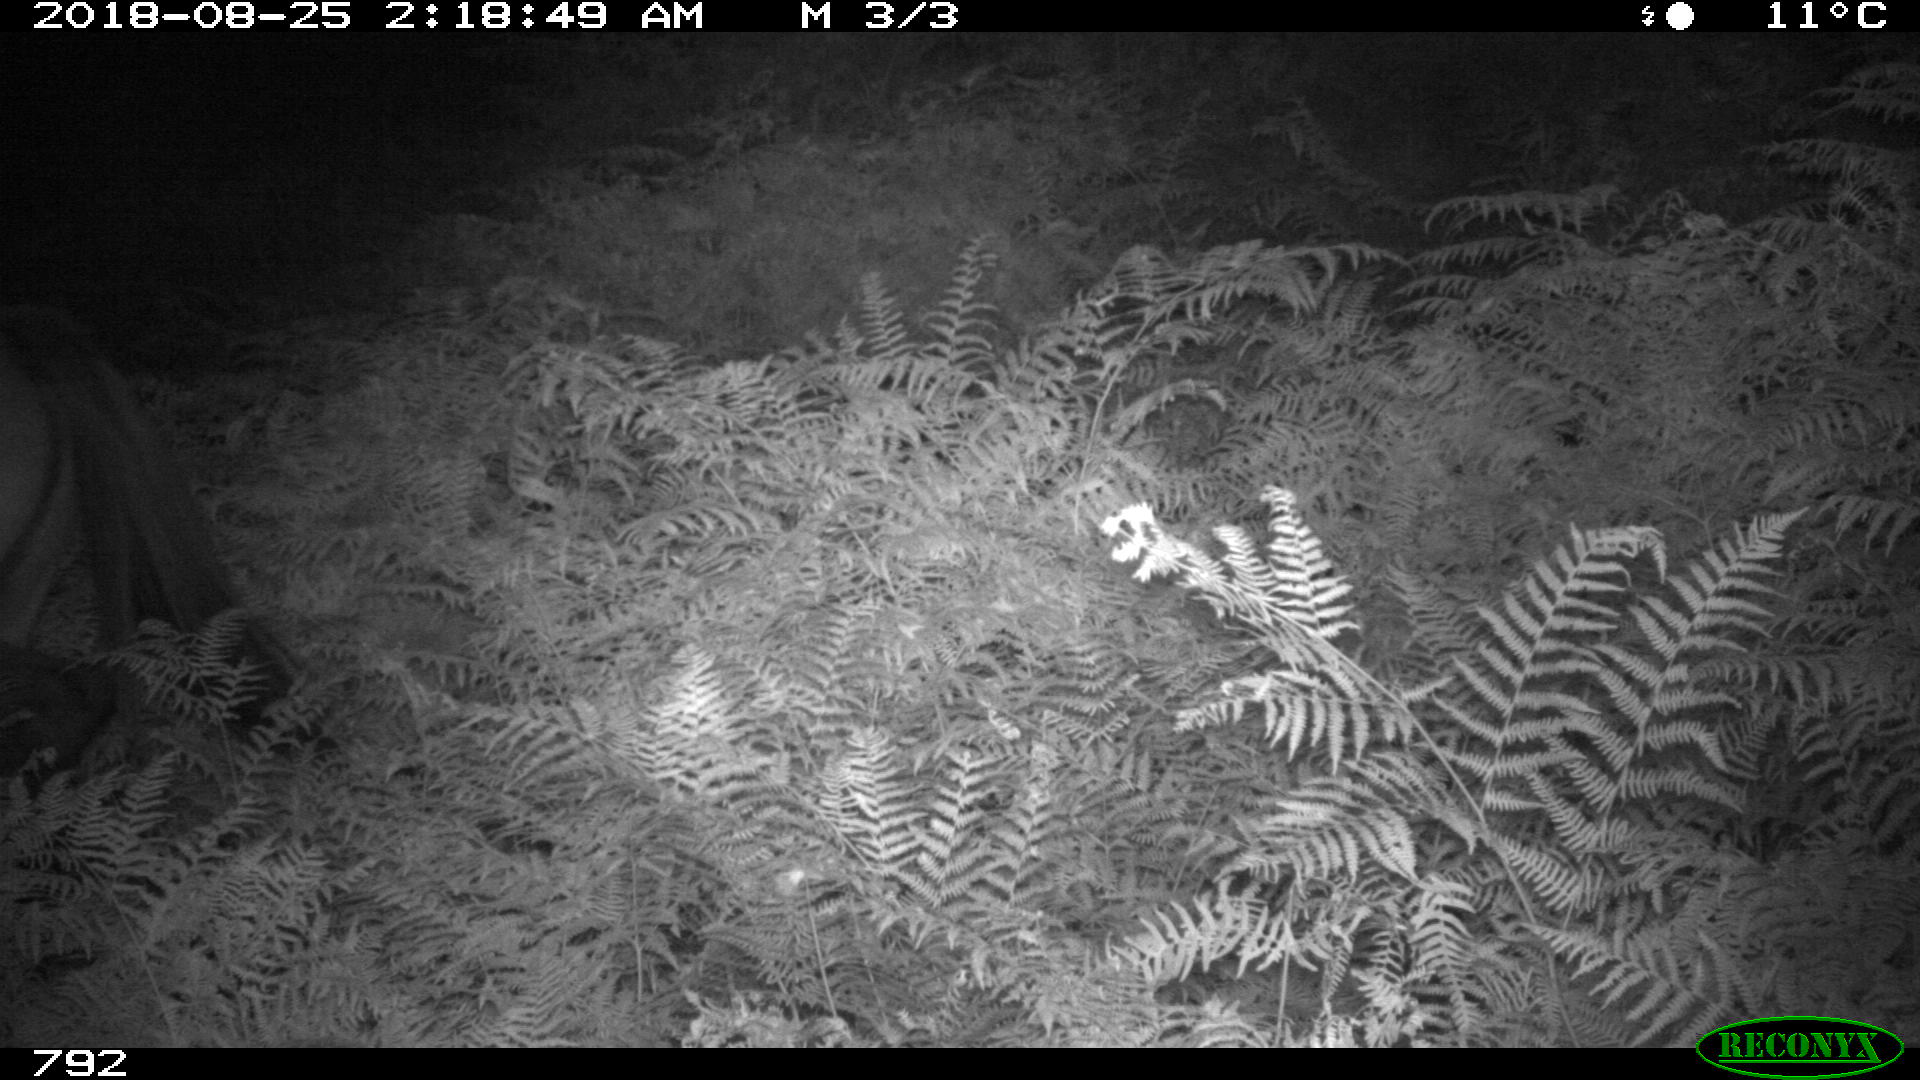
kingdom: Animalia
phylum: Chordata
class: Mammalia
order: Perissodactyla
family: Equidae
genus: Equus
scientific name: Equus caballus
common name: Horse
